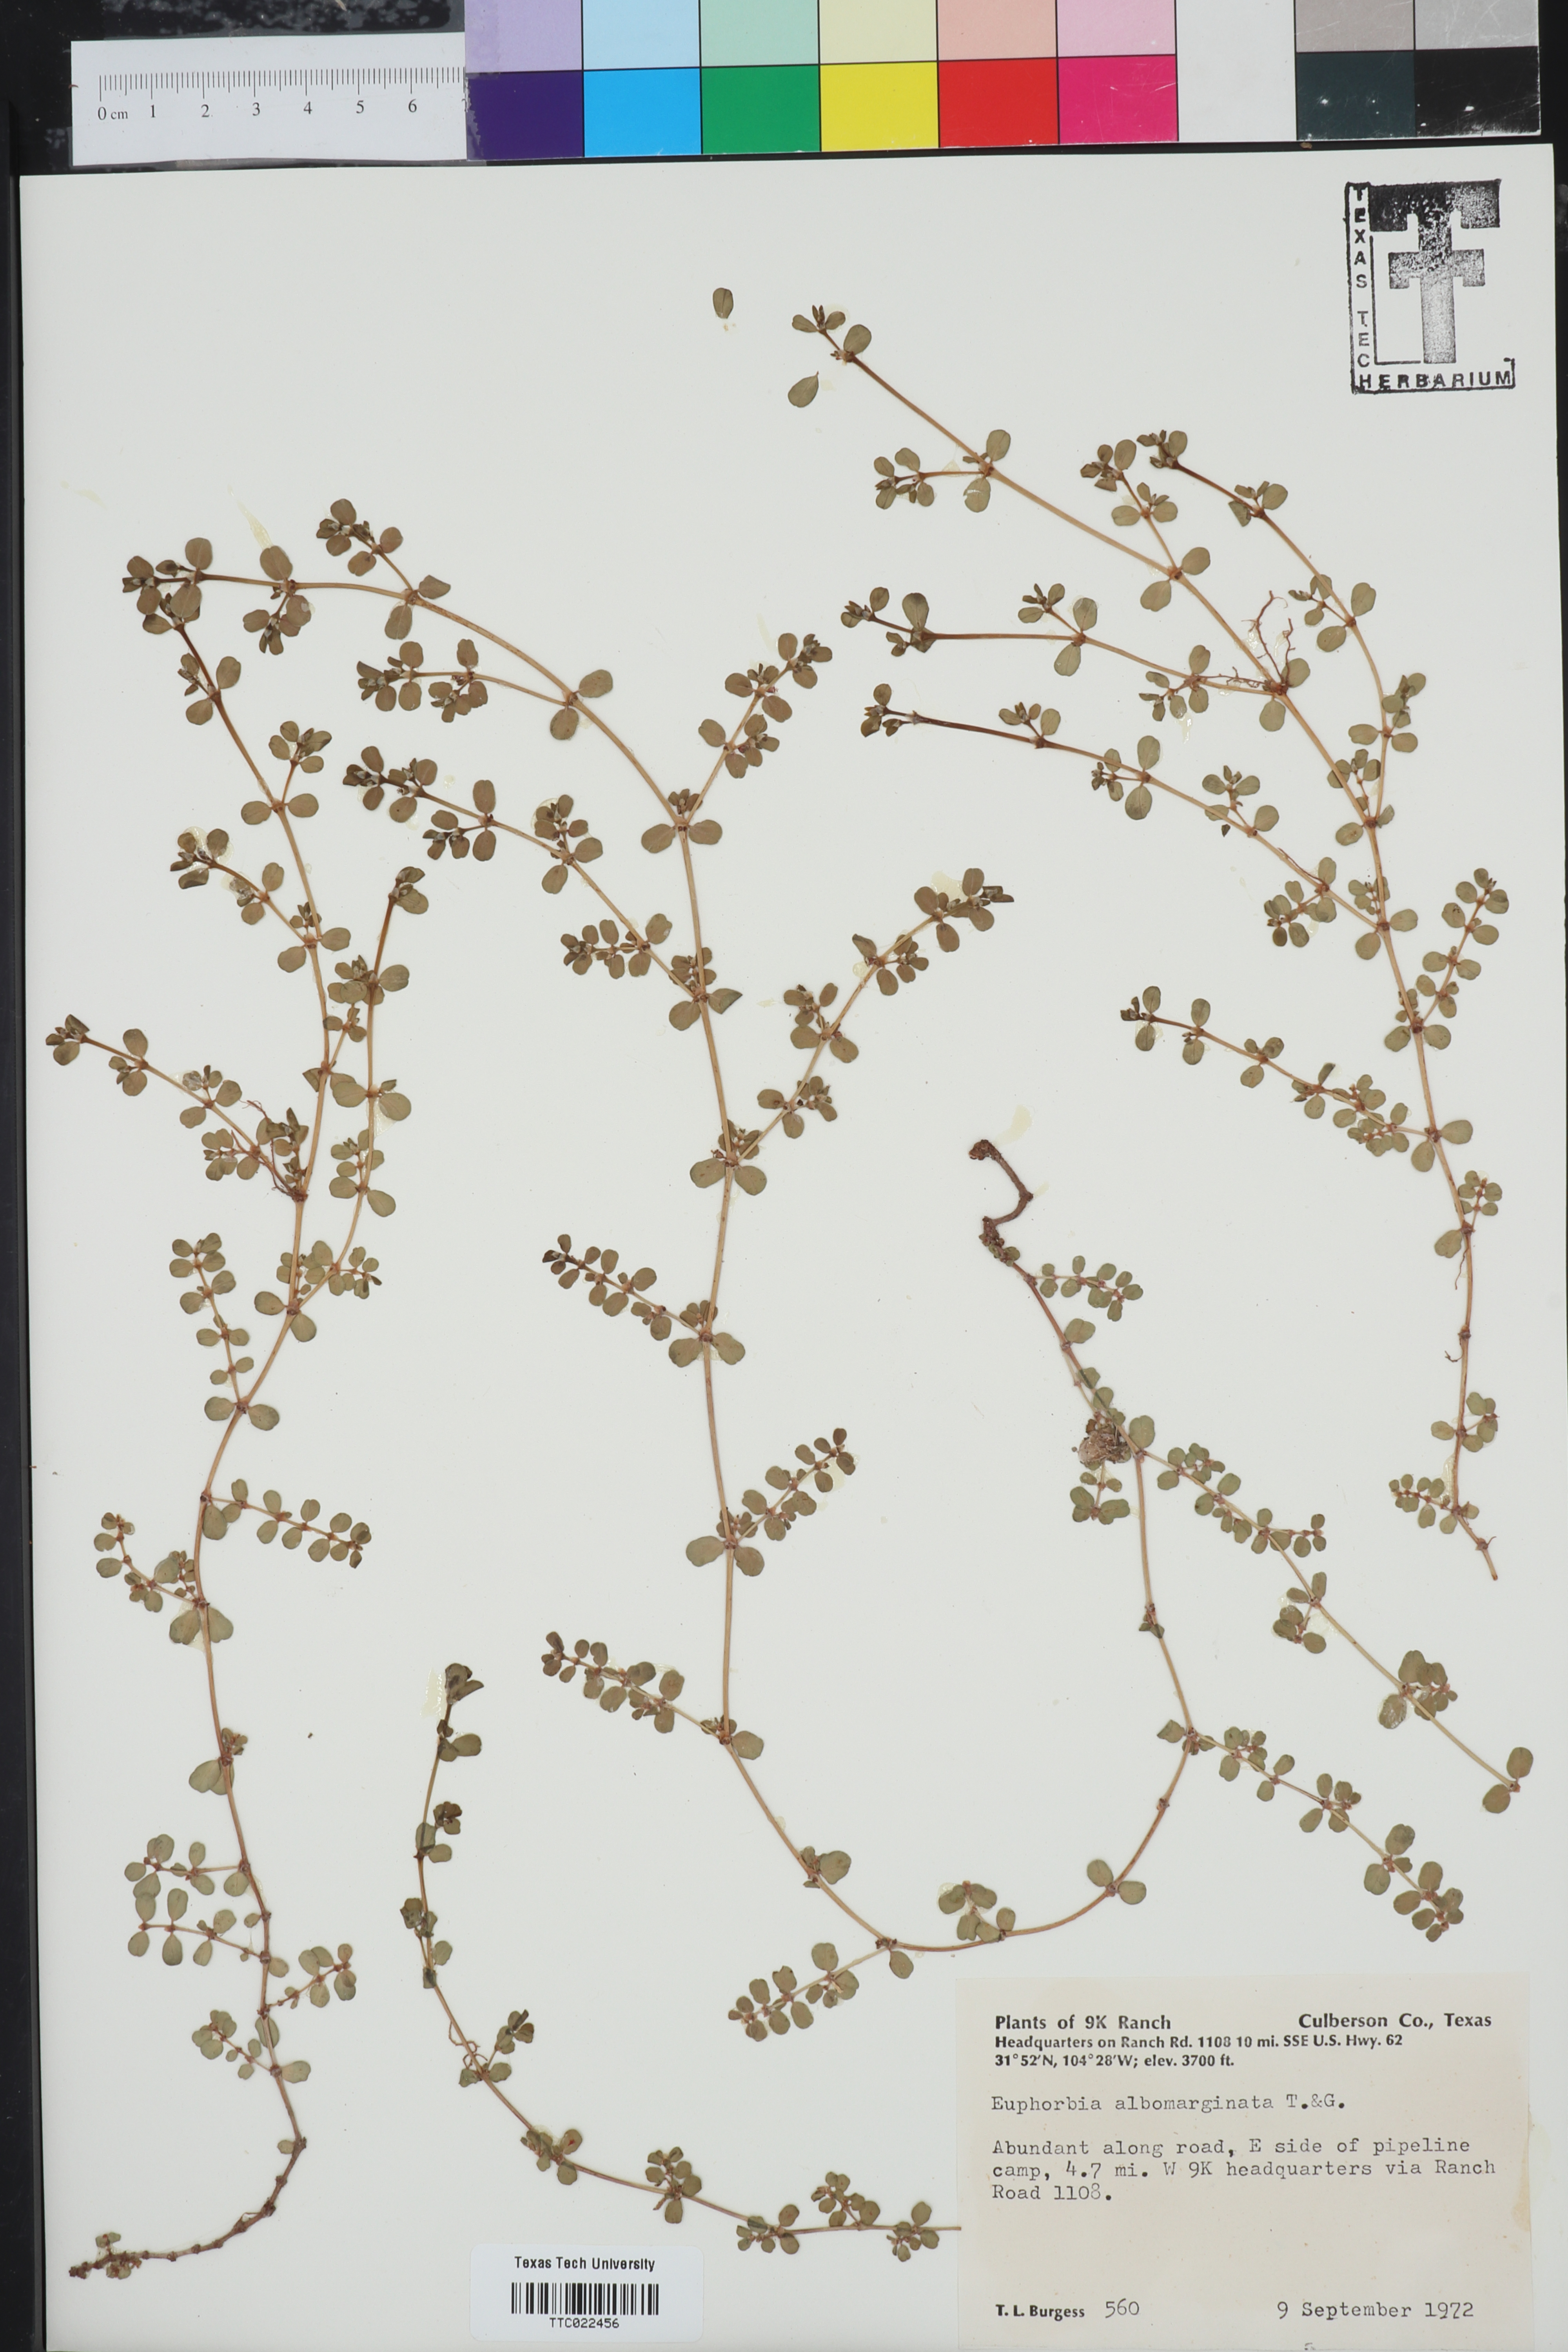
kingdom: Plantae
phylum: Tracheophyta
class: Magnoliopsida
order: Malpighiales
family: Euphorbiaceae
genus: Euphorbia
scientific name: Euphorbia albomarginata
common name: Whitemargin sandmat
